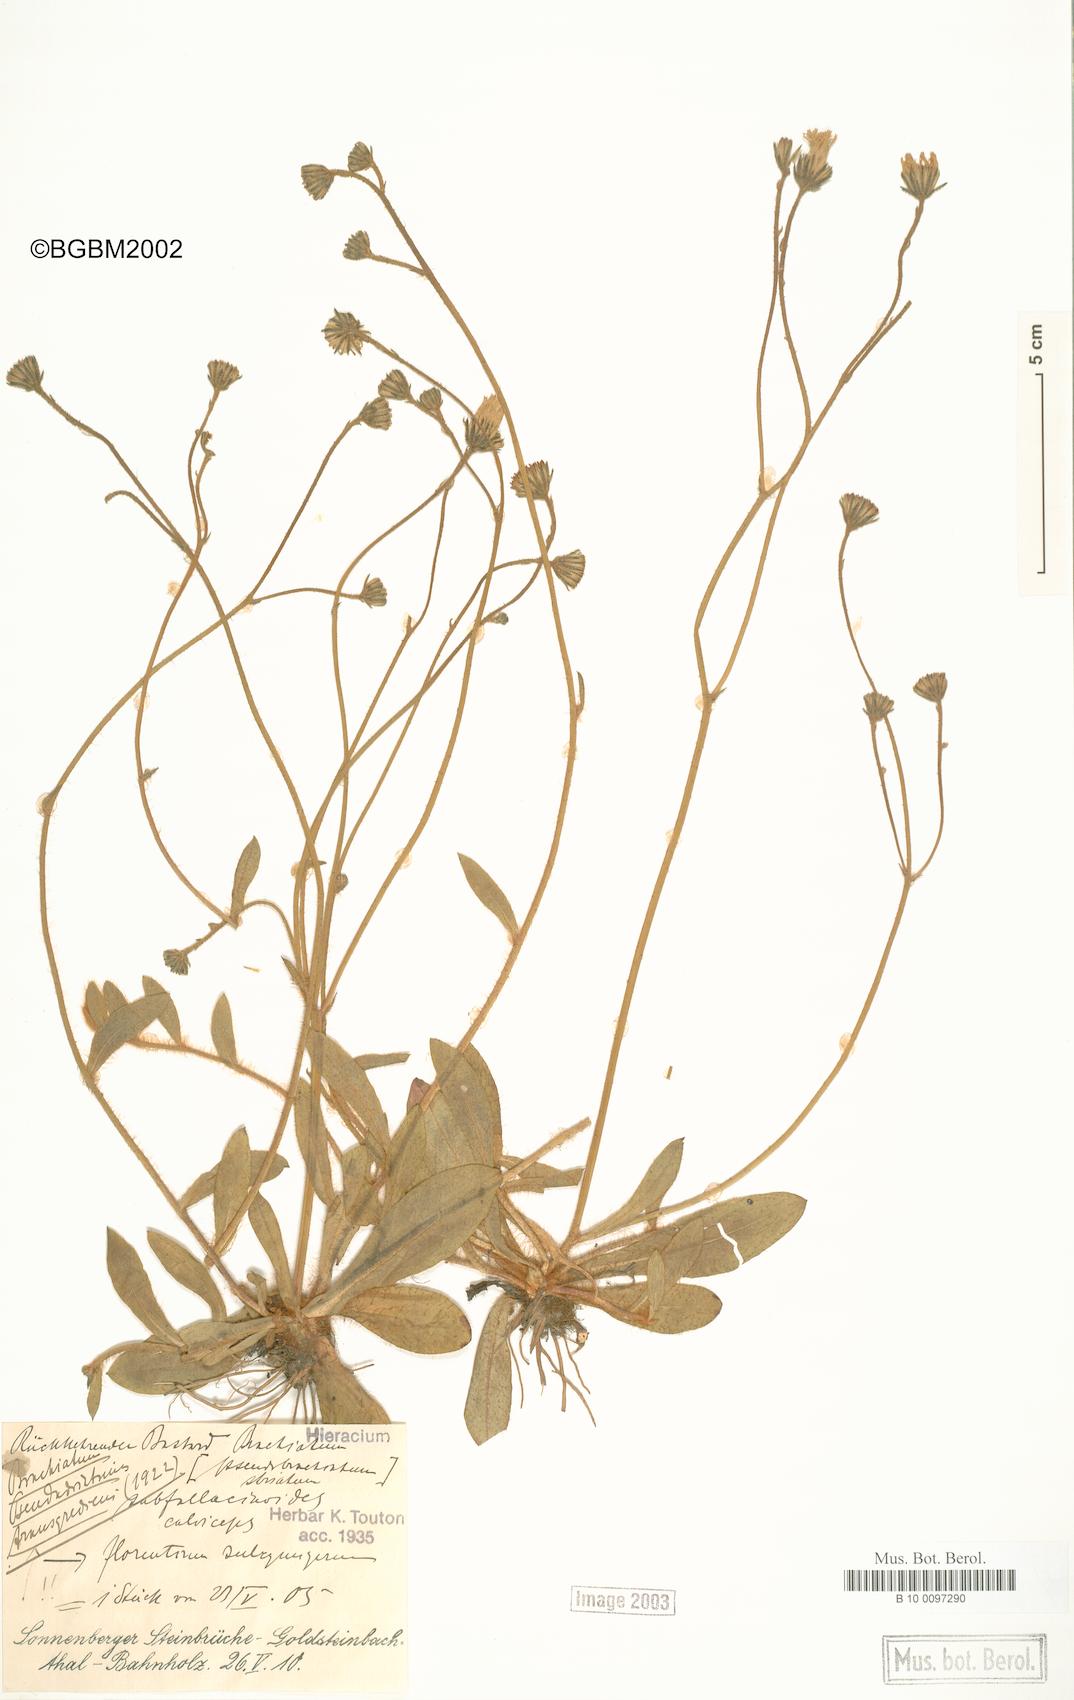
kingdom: Plantae
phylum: Tracheophyta
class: Magnoliopsida
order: Asterales
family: Asteraceae
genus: Pilosella
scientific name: Pilosella acutifolia
